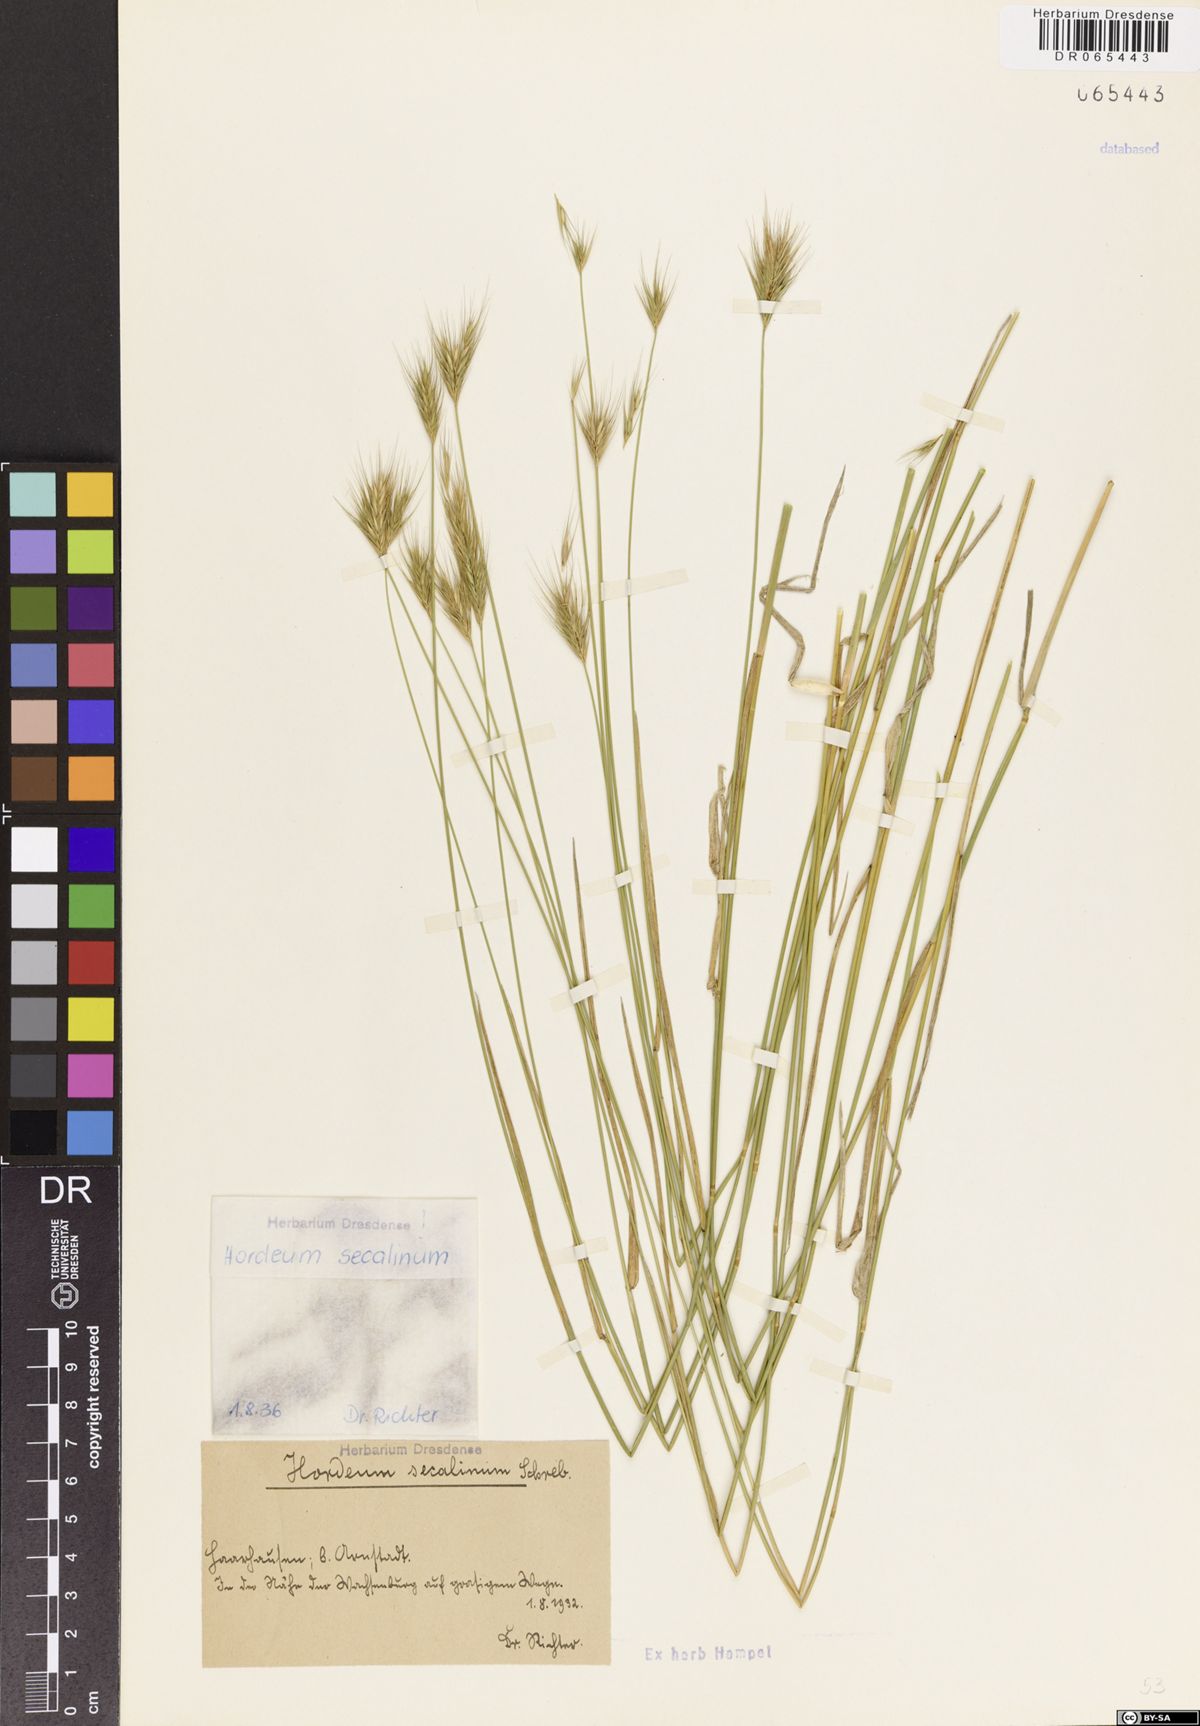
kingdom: Plantae
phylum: Tracheophyta
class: Liliopsida
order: Poales
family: Poaceae
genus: Hordeum
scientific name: Hordeum secalinum
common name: Meadow barley
